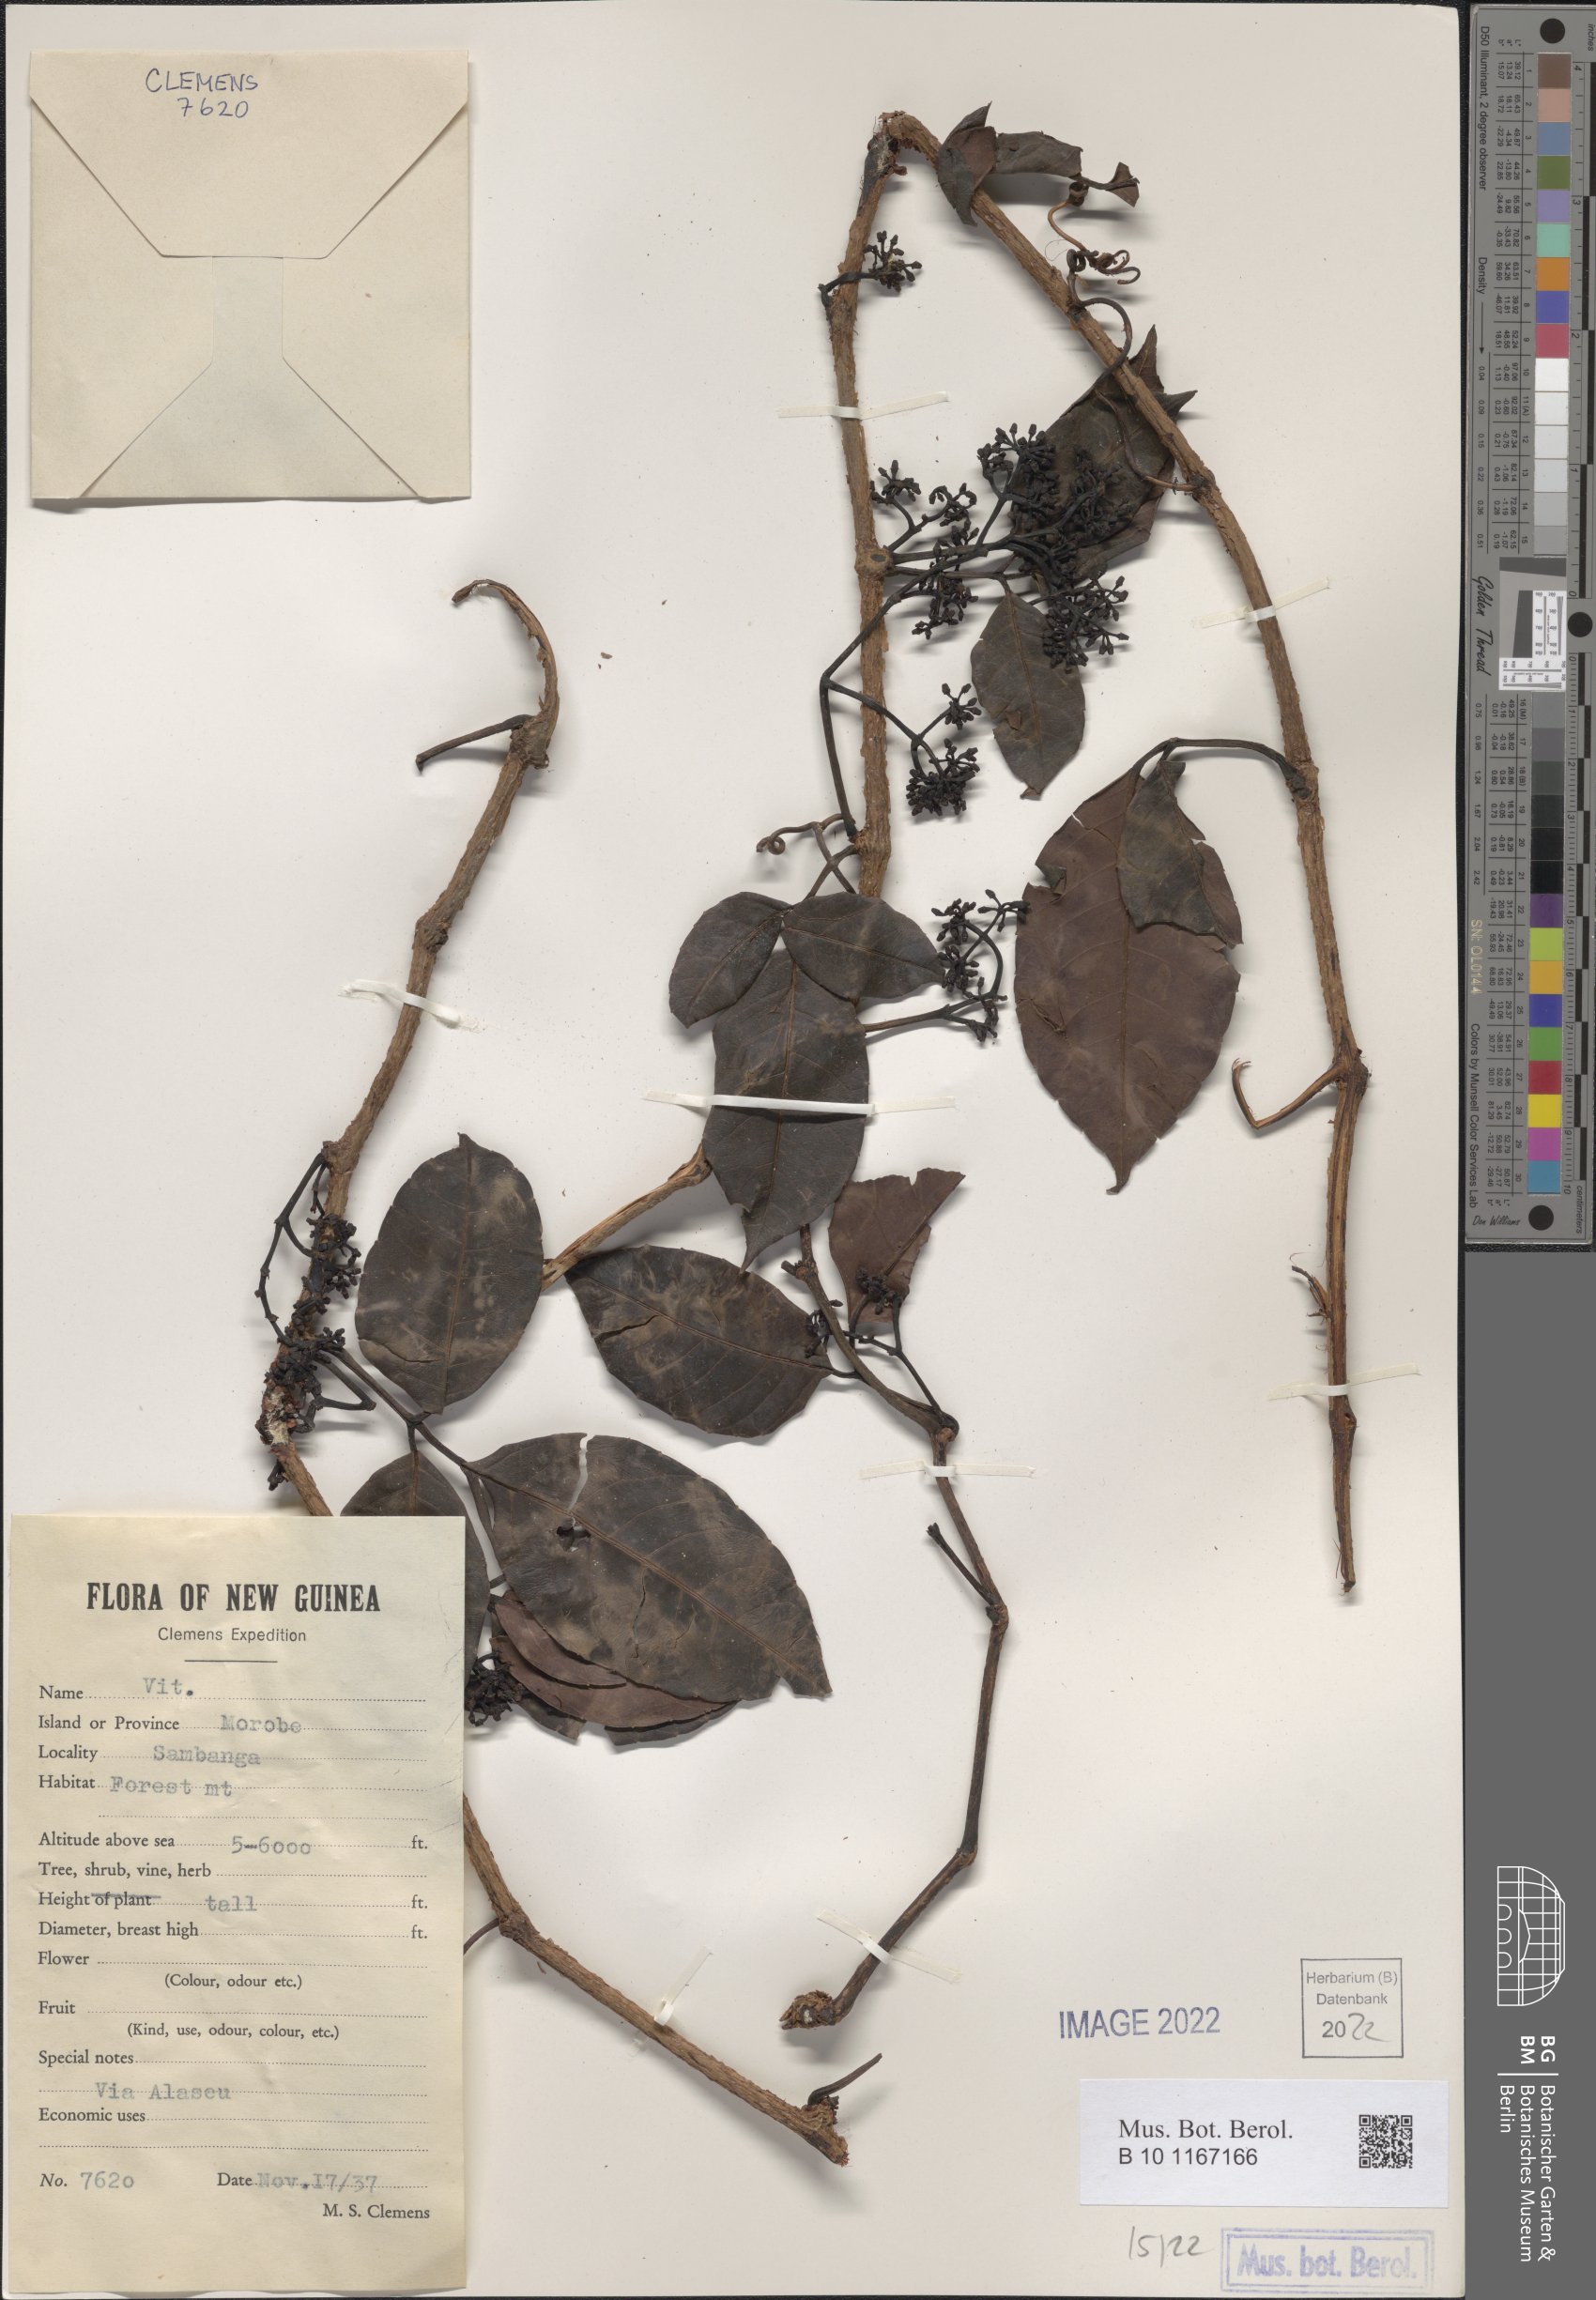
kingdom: Plantae
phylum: Tracheophyta
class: Magnoliopsida
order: Vitales
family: Vitaceae
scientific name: Vitaceae
